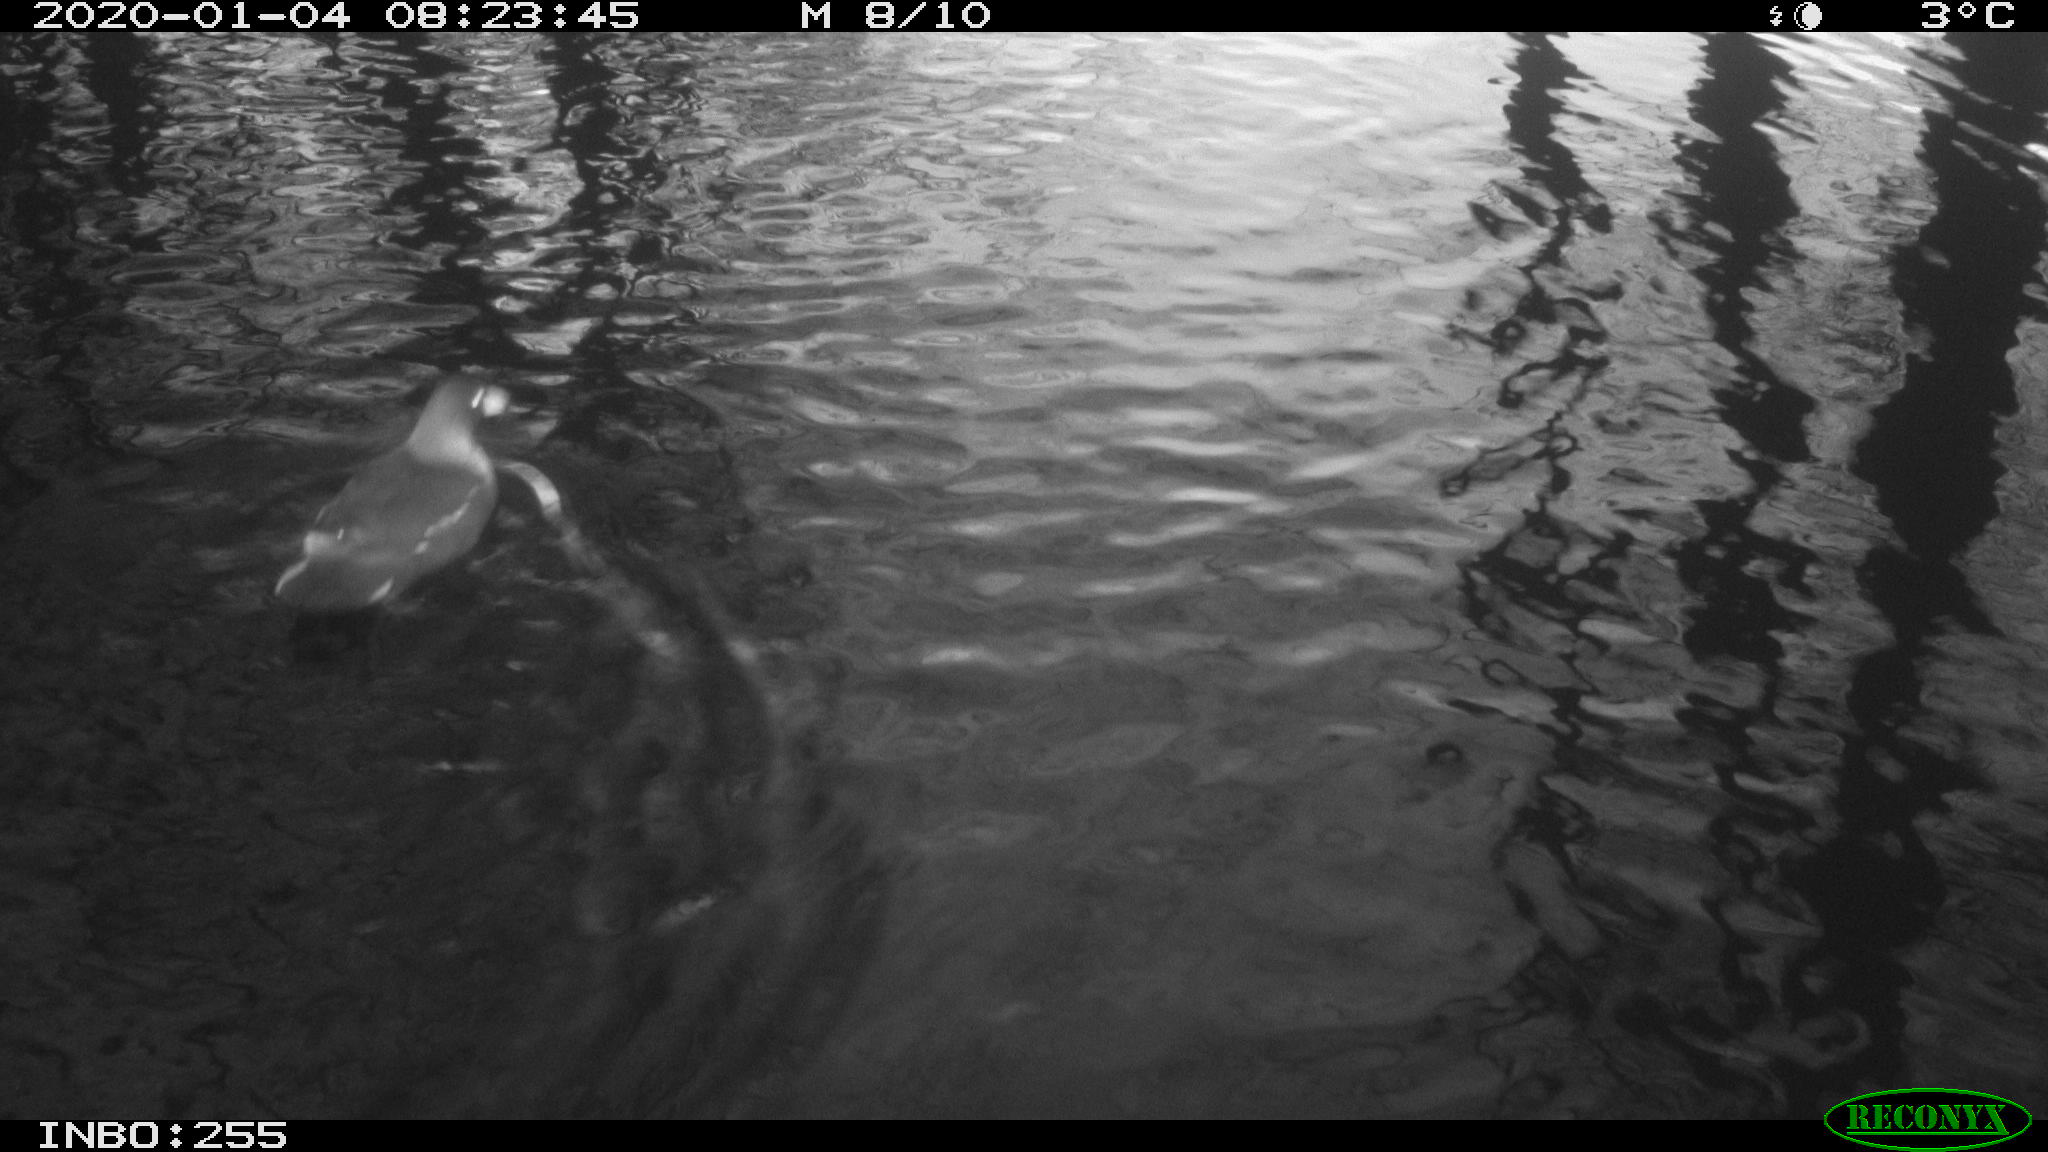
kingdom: Animalia
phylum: Chordata
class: Aves
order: Gruiformes
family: Rallidae
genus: Gallinula
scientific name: Gallinula chloropus
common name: Common moorhen
